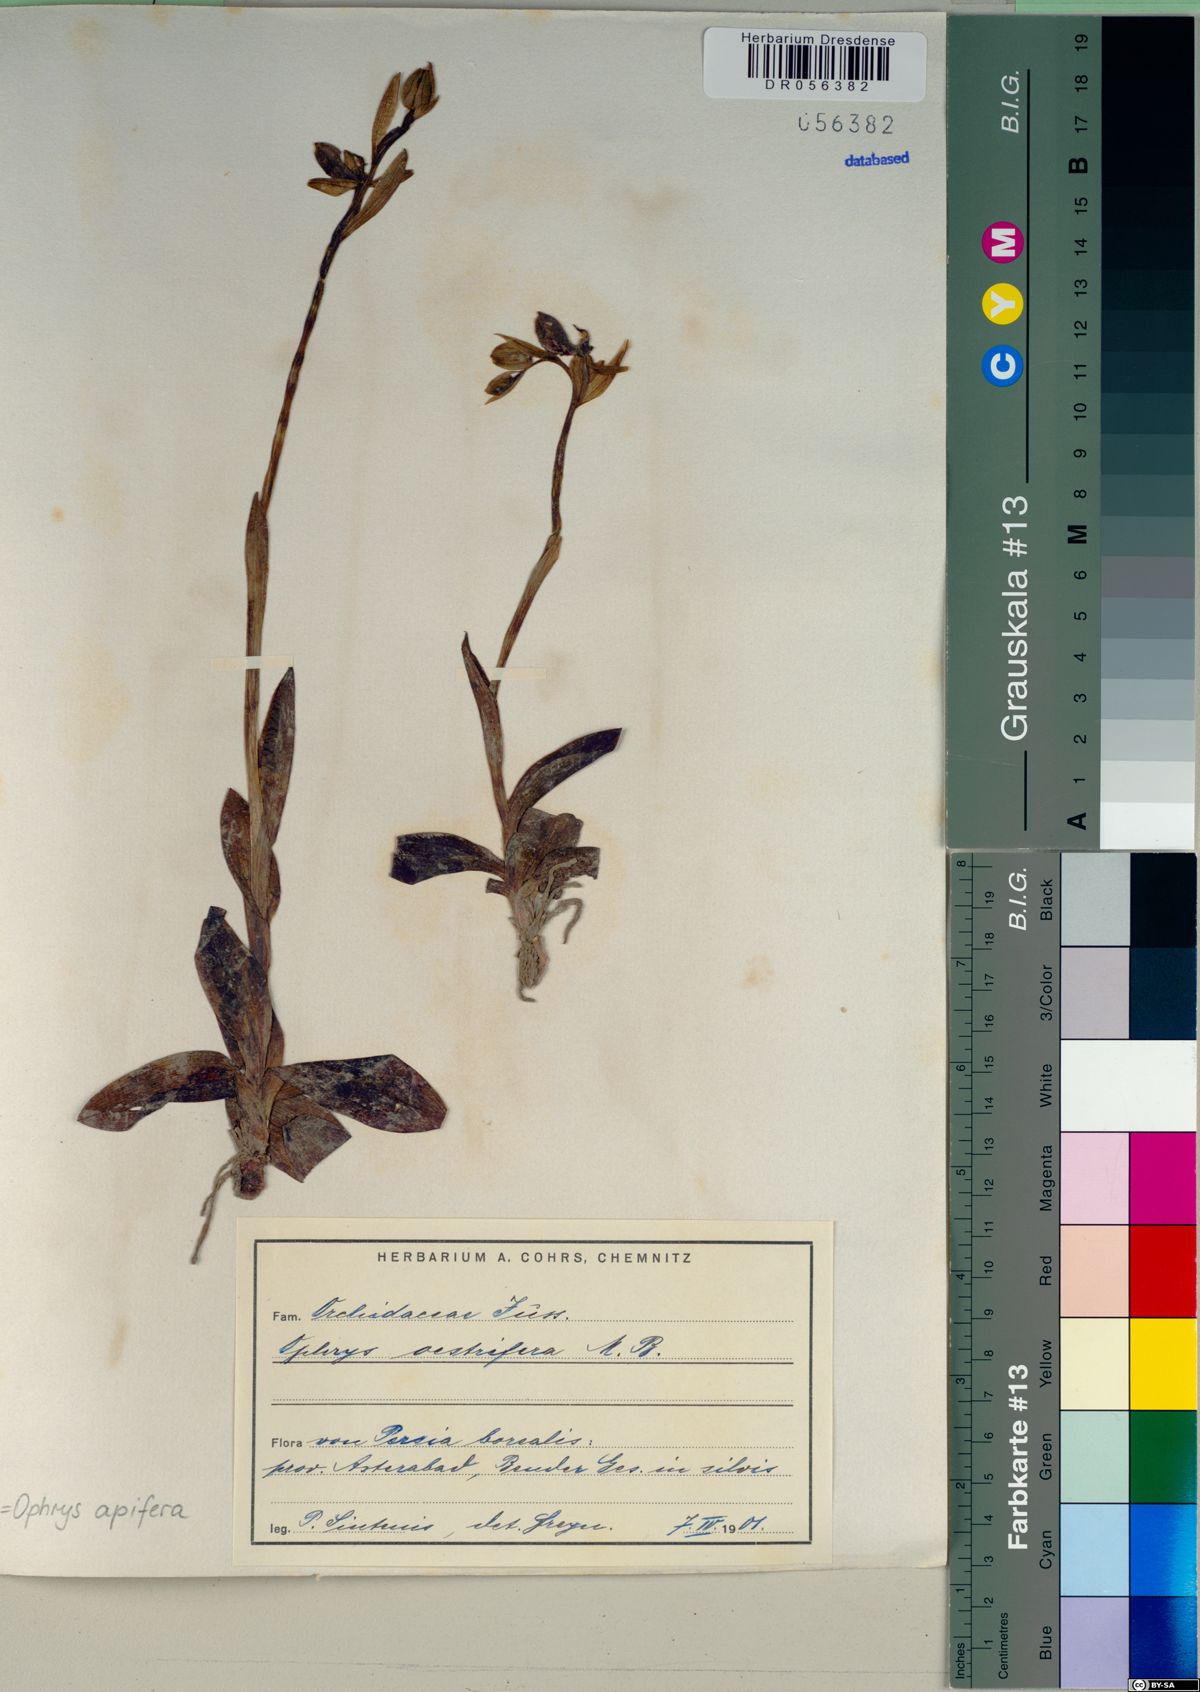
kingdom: Plantae
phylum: Tracheophyta
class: Liliopsida
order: Asparagales
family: Orchidaceae
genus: Ophrys
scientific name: Ophrys apifera
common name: Bee orchid
